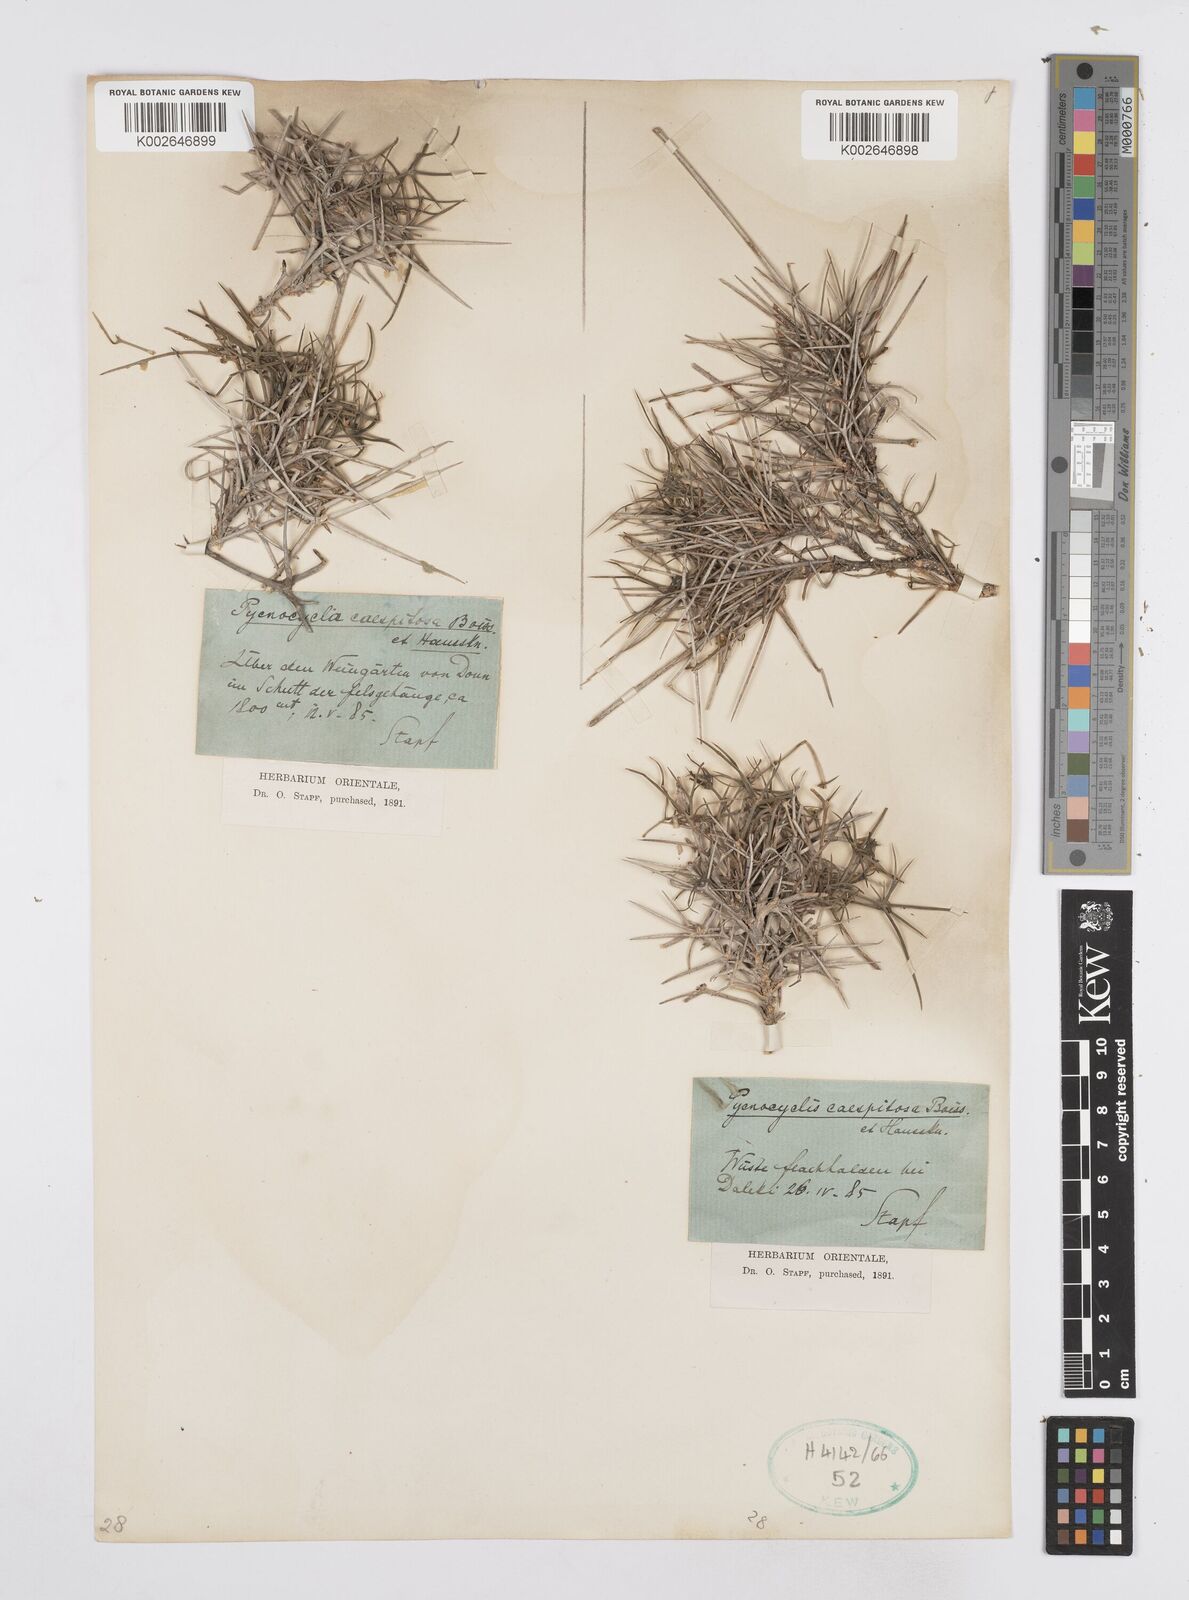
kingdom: Plantae
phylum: Tracheophyta
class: Magnoliopsida
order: Apiales
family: Apiaceae
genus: Pycnocycla
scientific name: Pycnocycla cespitosa
